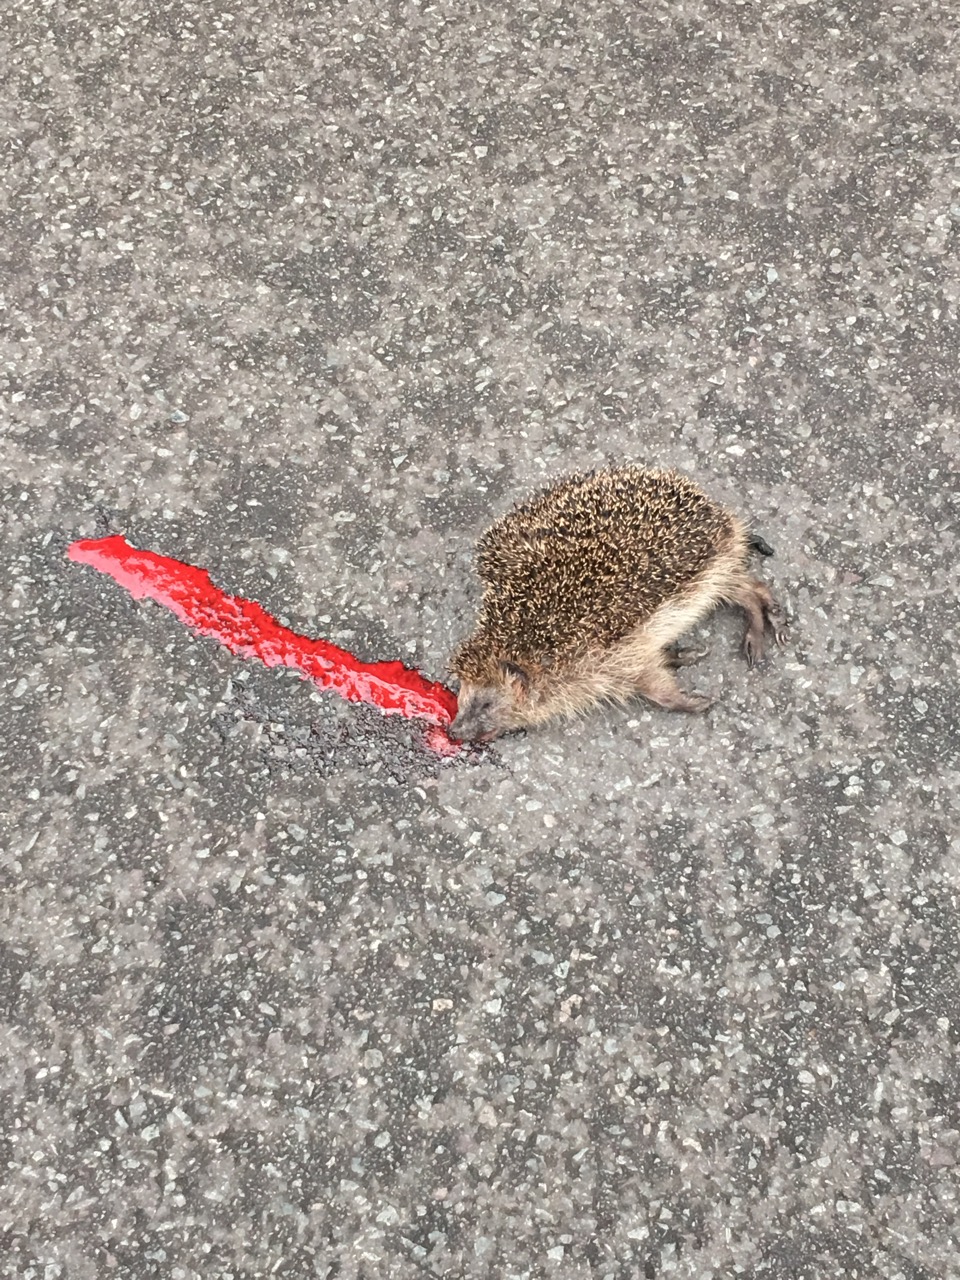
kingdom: Animalia
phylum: Chordata
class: Mammalia
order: Erinaceomorpha
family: Erinaceidae
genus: Erinaceus
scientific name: Erinaceus
